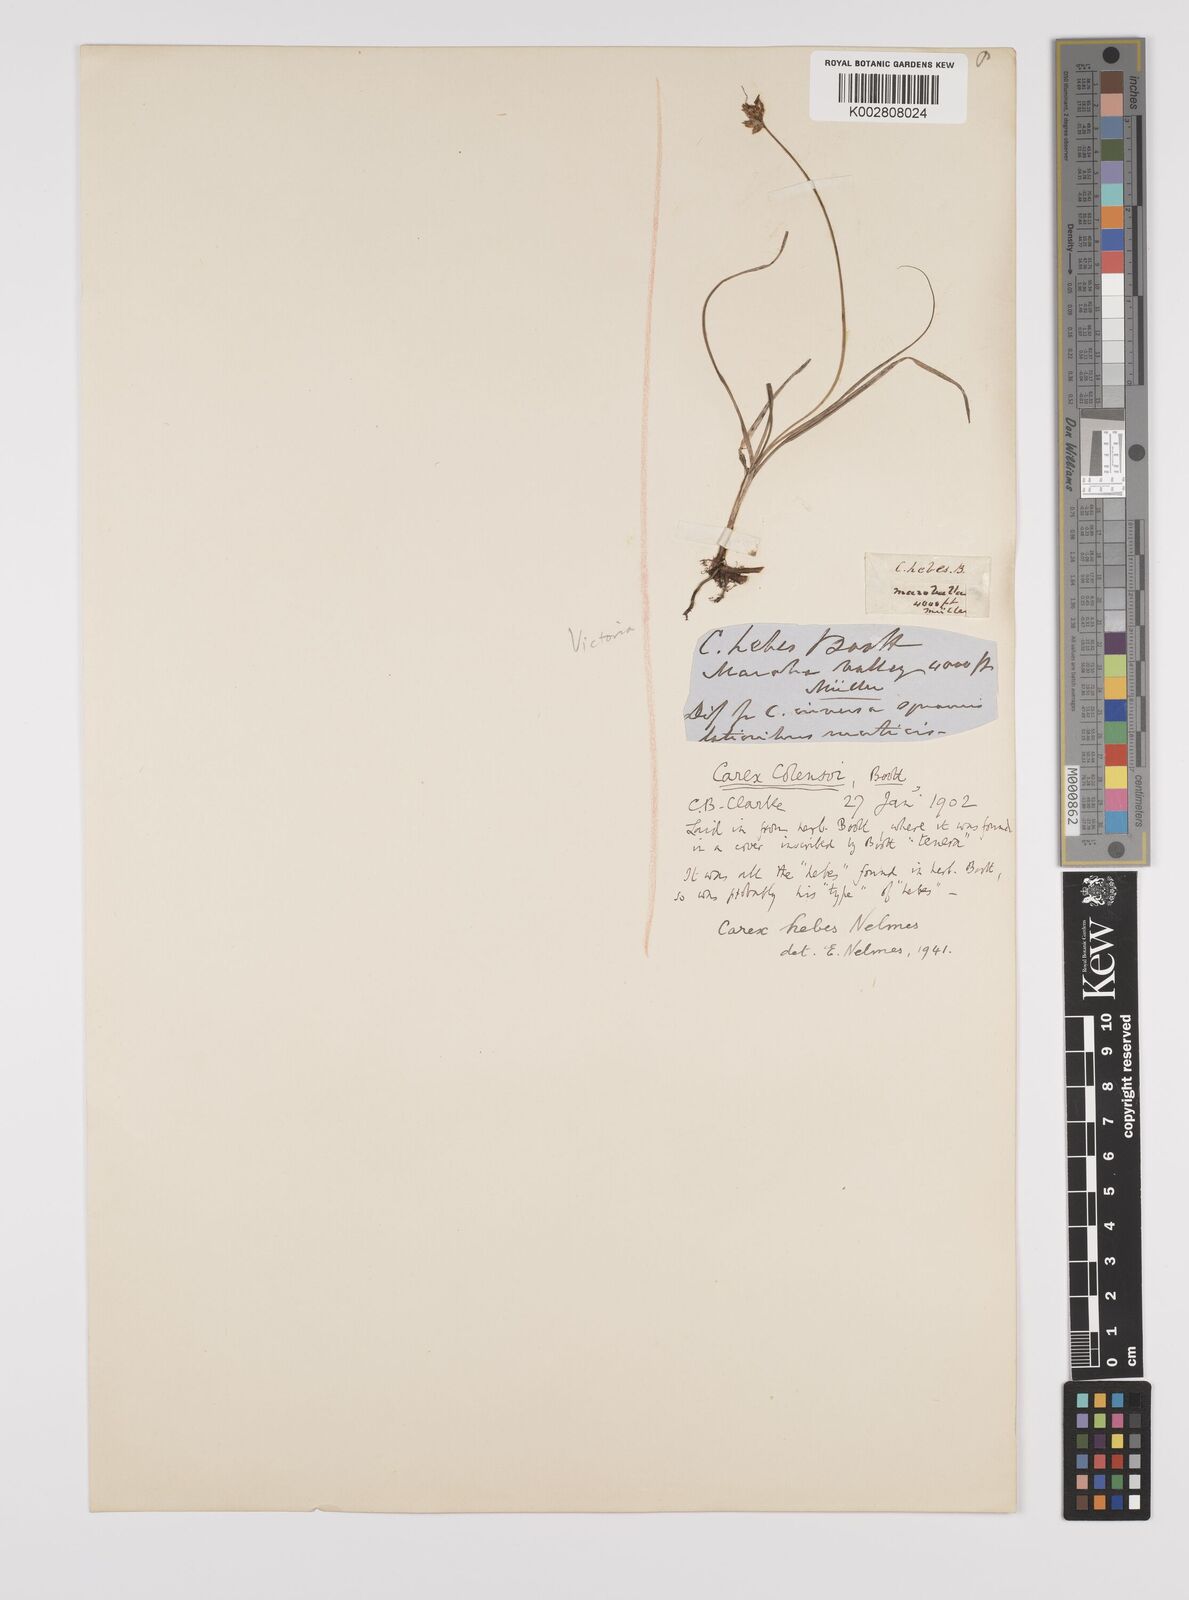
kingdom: Plantae
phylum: Tracheophyta
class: Liliopsida
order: Poales
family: Cyperaceae
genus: Carex
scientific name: Carex hebes
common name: Dry land sedge
